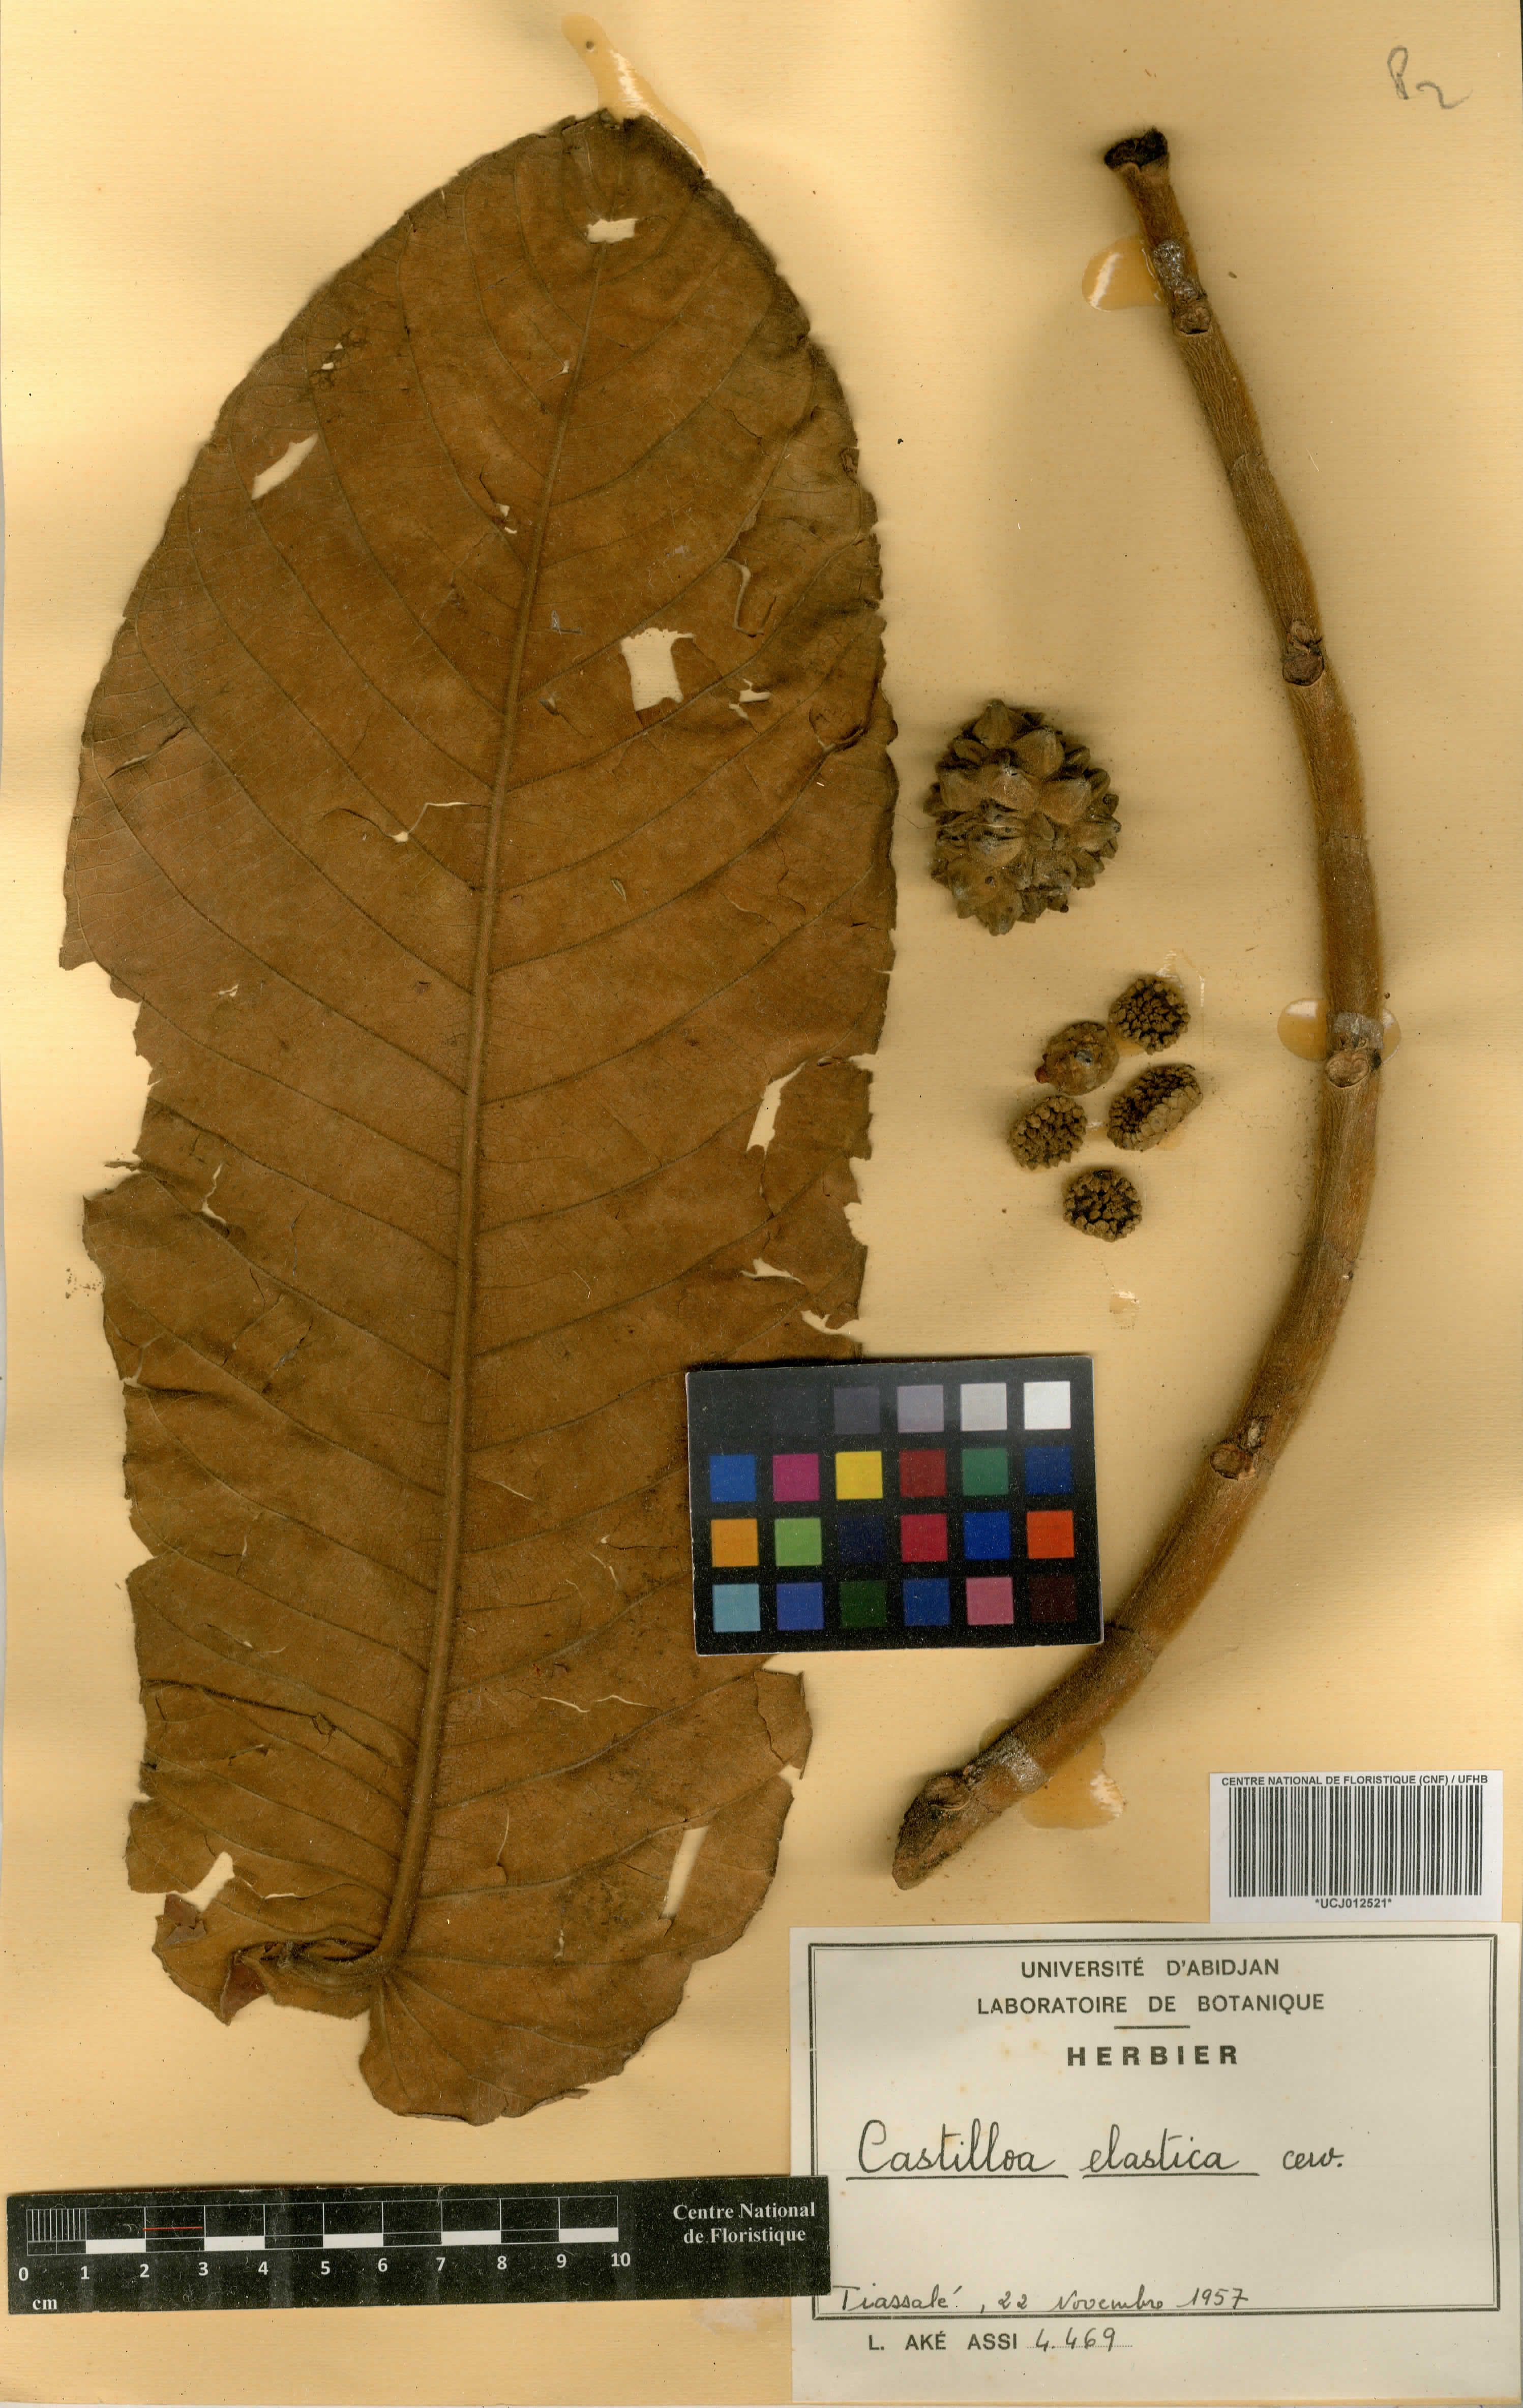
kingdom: Plantae
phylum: Tracheophyta
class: Magnoliopsida
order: Rosales
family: Moraceae
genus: Castilla
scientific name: Castilla elastica
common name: Castilla rubber
